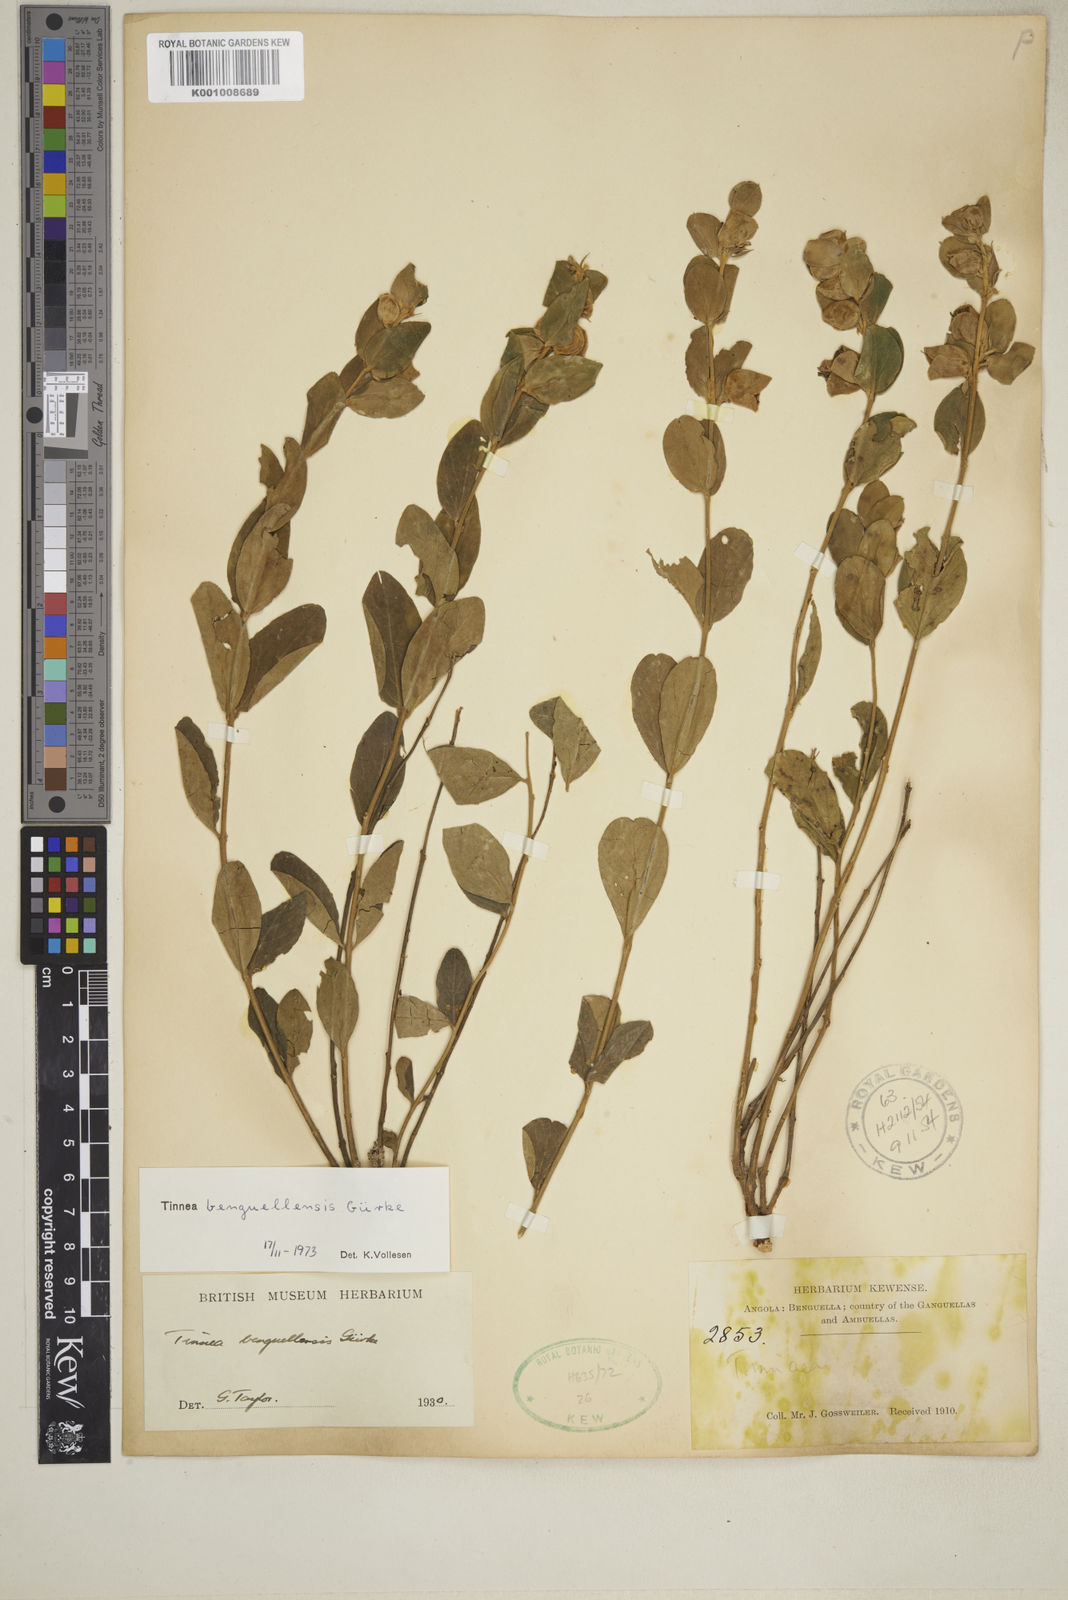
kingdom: Plantae
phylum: Tracheophyta
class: Magnoliopsida
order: Lamiales
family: Lamiaceae
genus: Tinnea
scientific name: Tinnea
